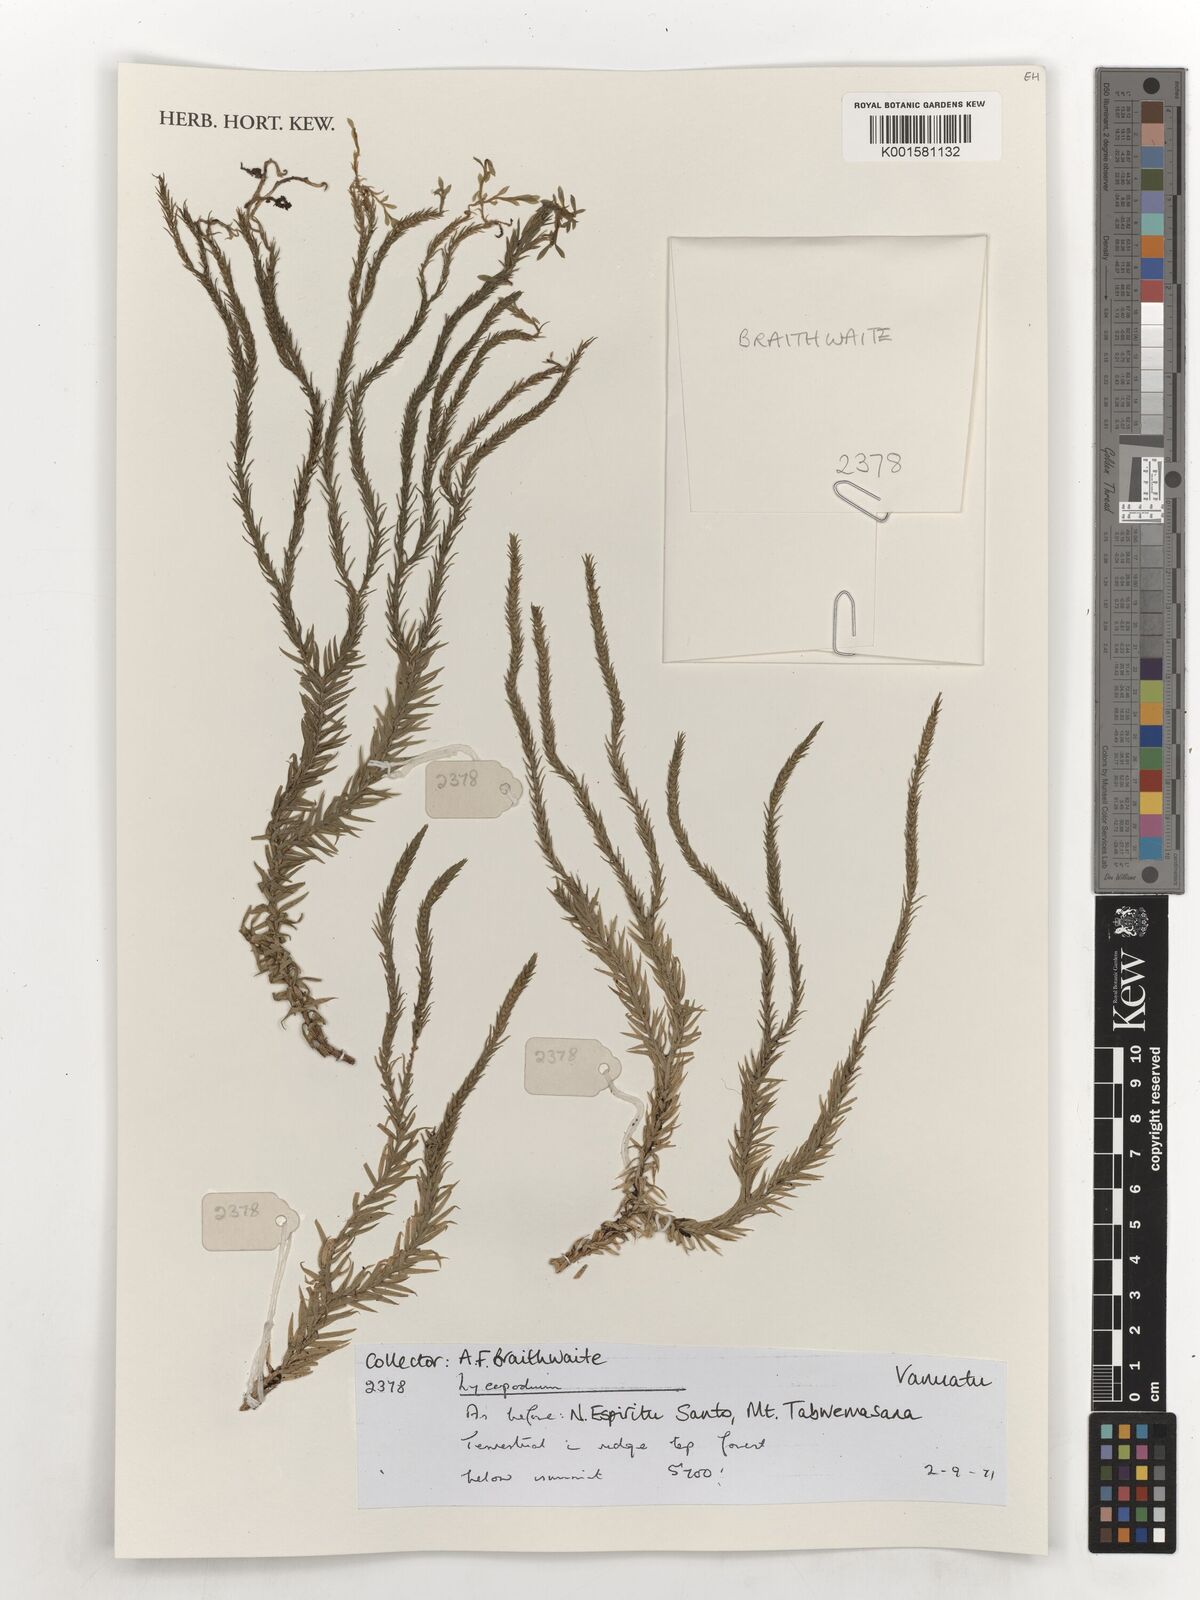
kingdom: Plantae
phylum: Tracheophyta
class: Lycopodiopsida
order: Lycopodiales
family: Lycopodiaceae
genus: Lycopodium
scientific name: Lycopodium
